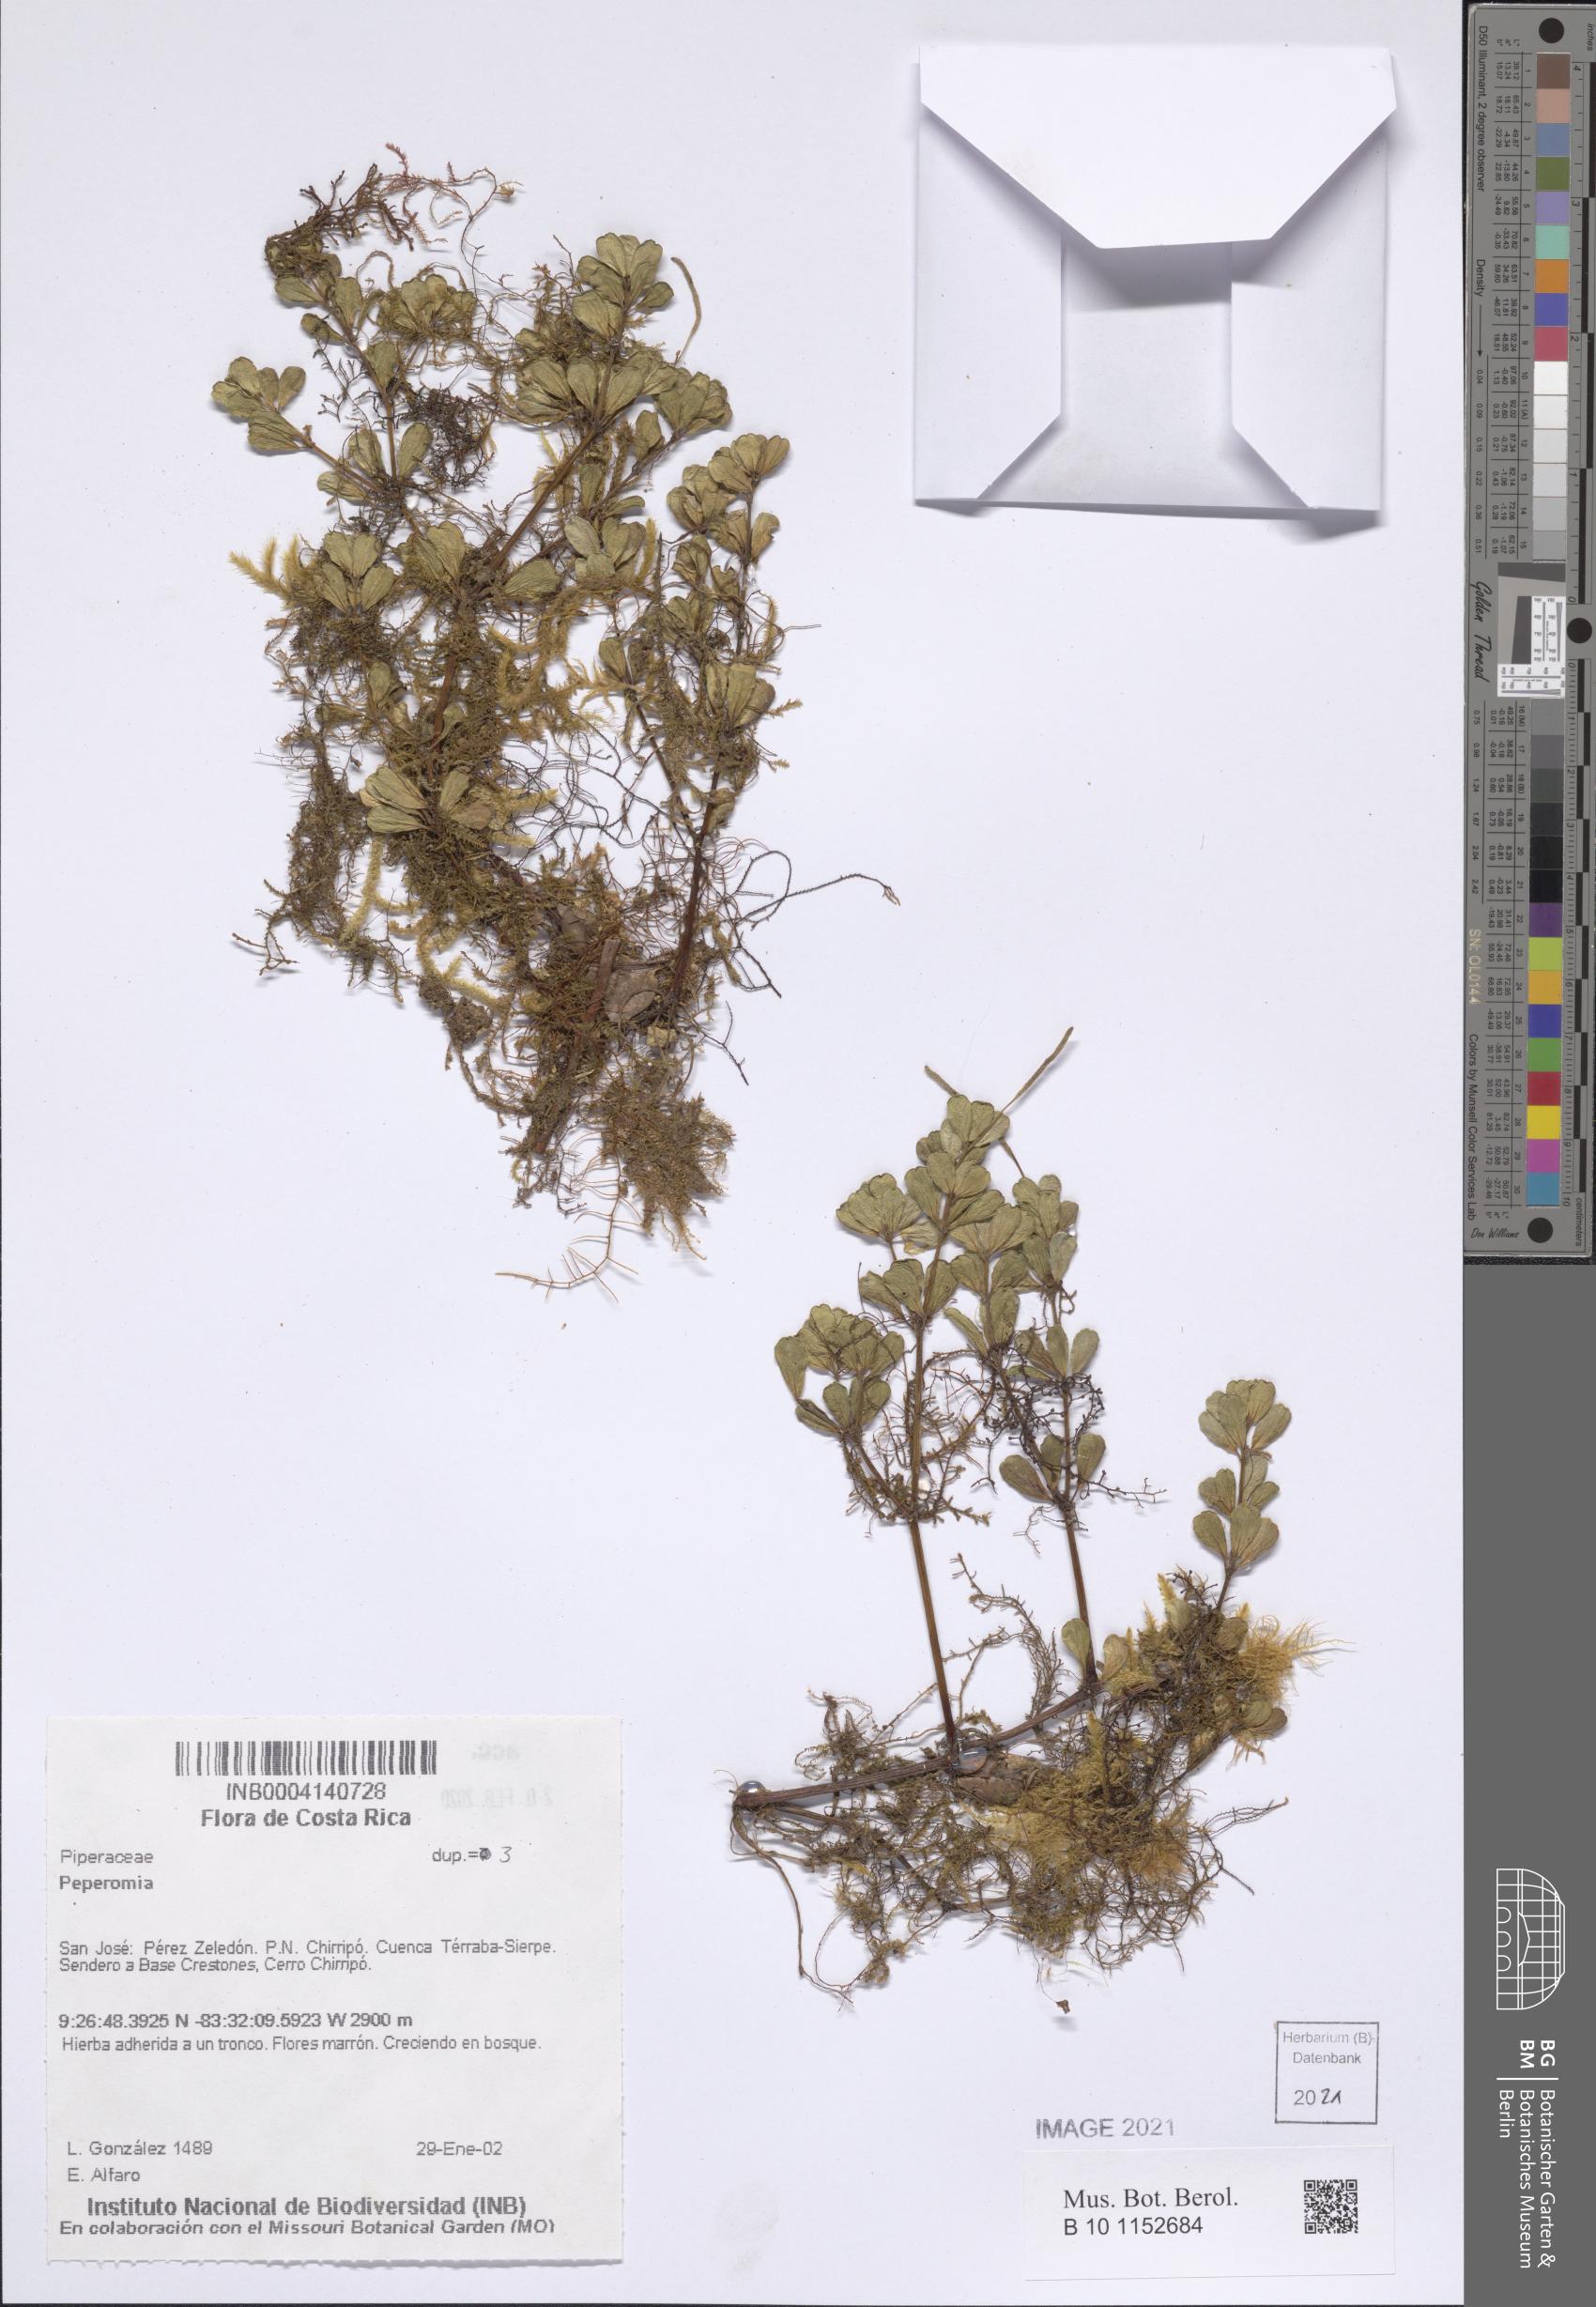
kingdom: Plantae
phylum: Tracheophyta
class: Magnoliopsida
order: Piperales
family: Piperaceae
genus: Peperomia
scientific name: Peperomia
